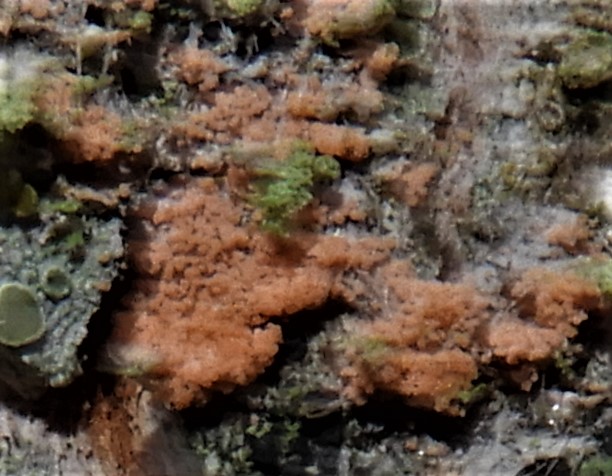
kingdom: Fungi
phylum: Basidiomycota
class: Agaricomycetes
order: Corticiales
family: Corticiaceae
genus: Erythricium
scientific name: Erythricium aurantiacum
